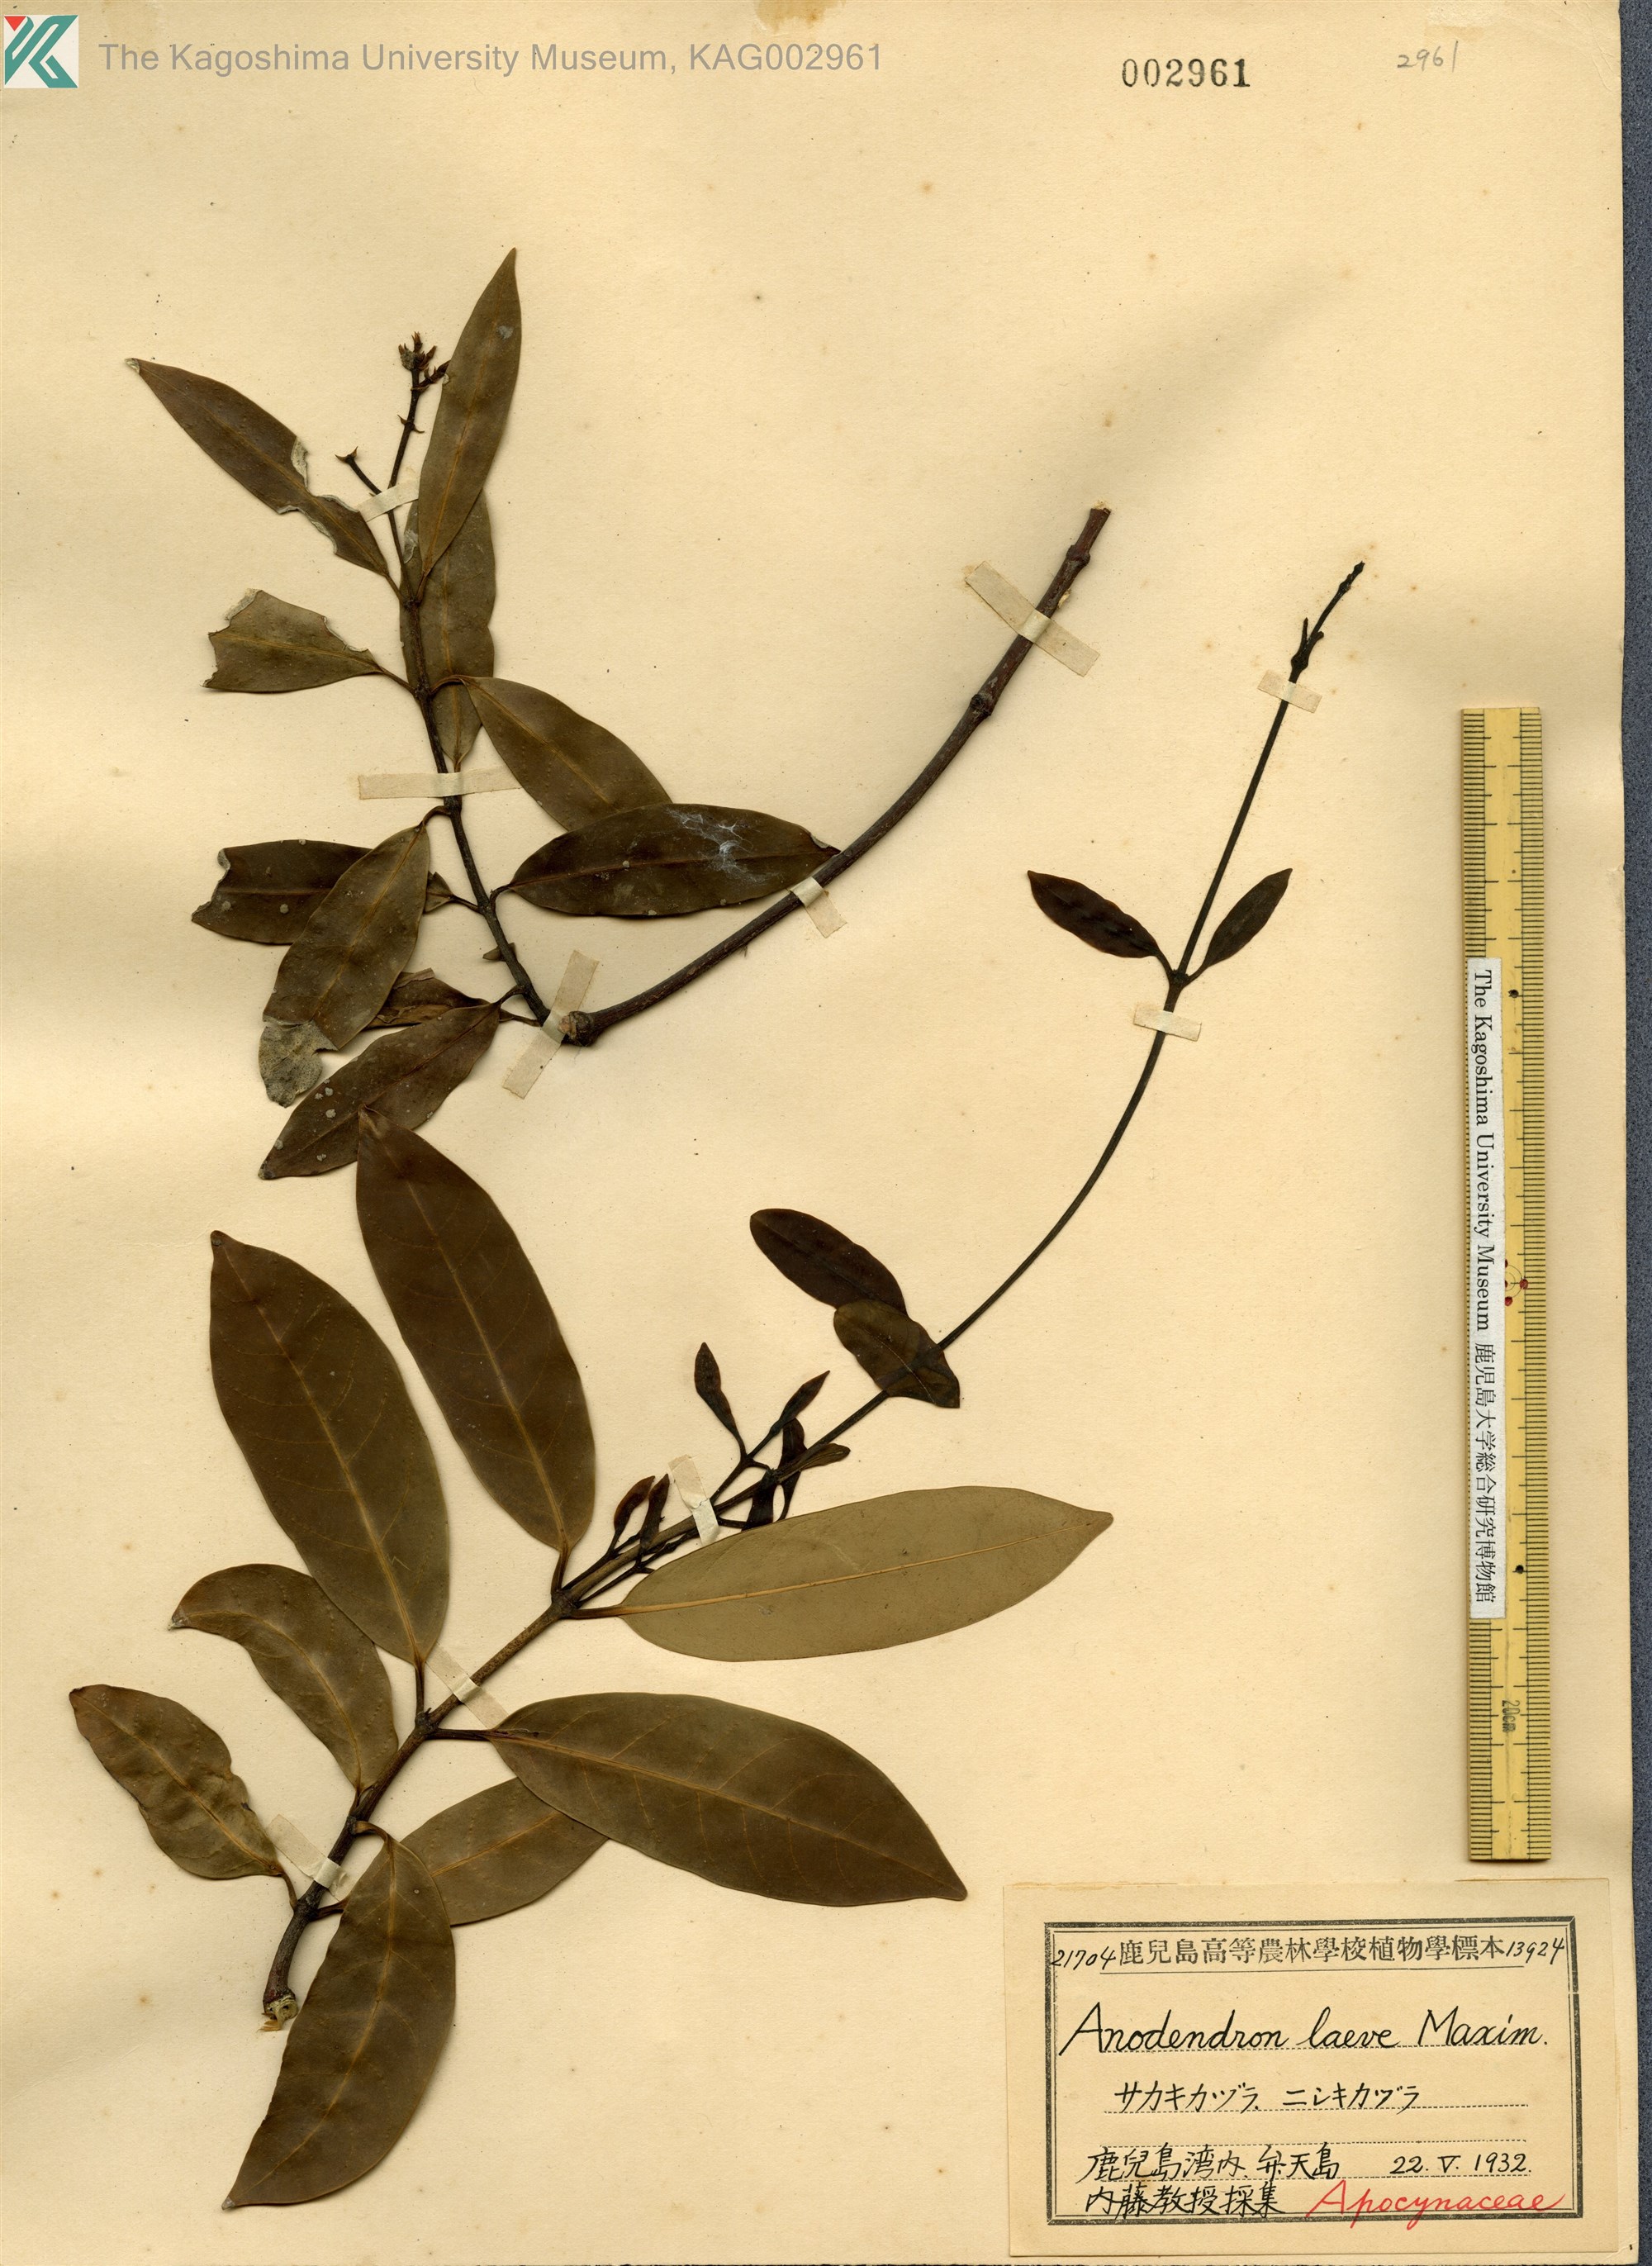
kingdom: Plantae
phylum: Tracheophyta
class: Magnoliopsida
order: Gentianales
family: Apocynaceae
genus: Anodendron
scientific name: Anodendron affine
